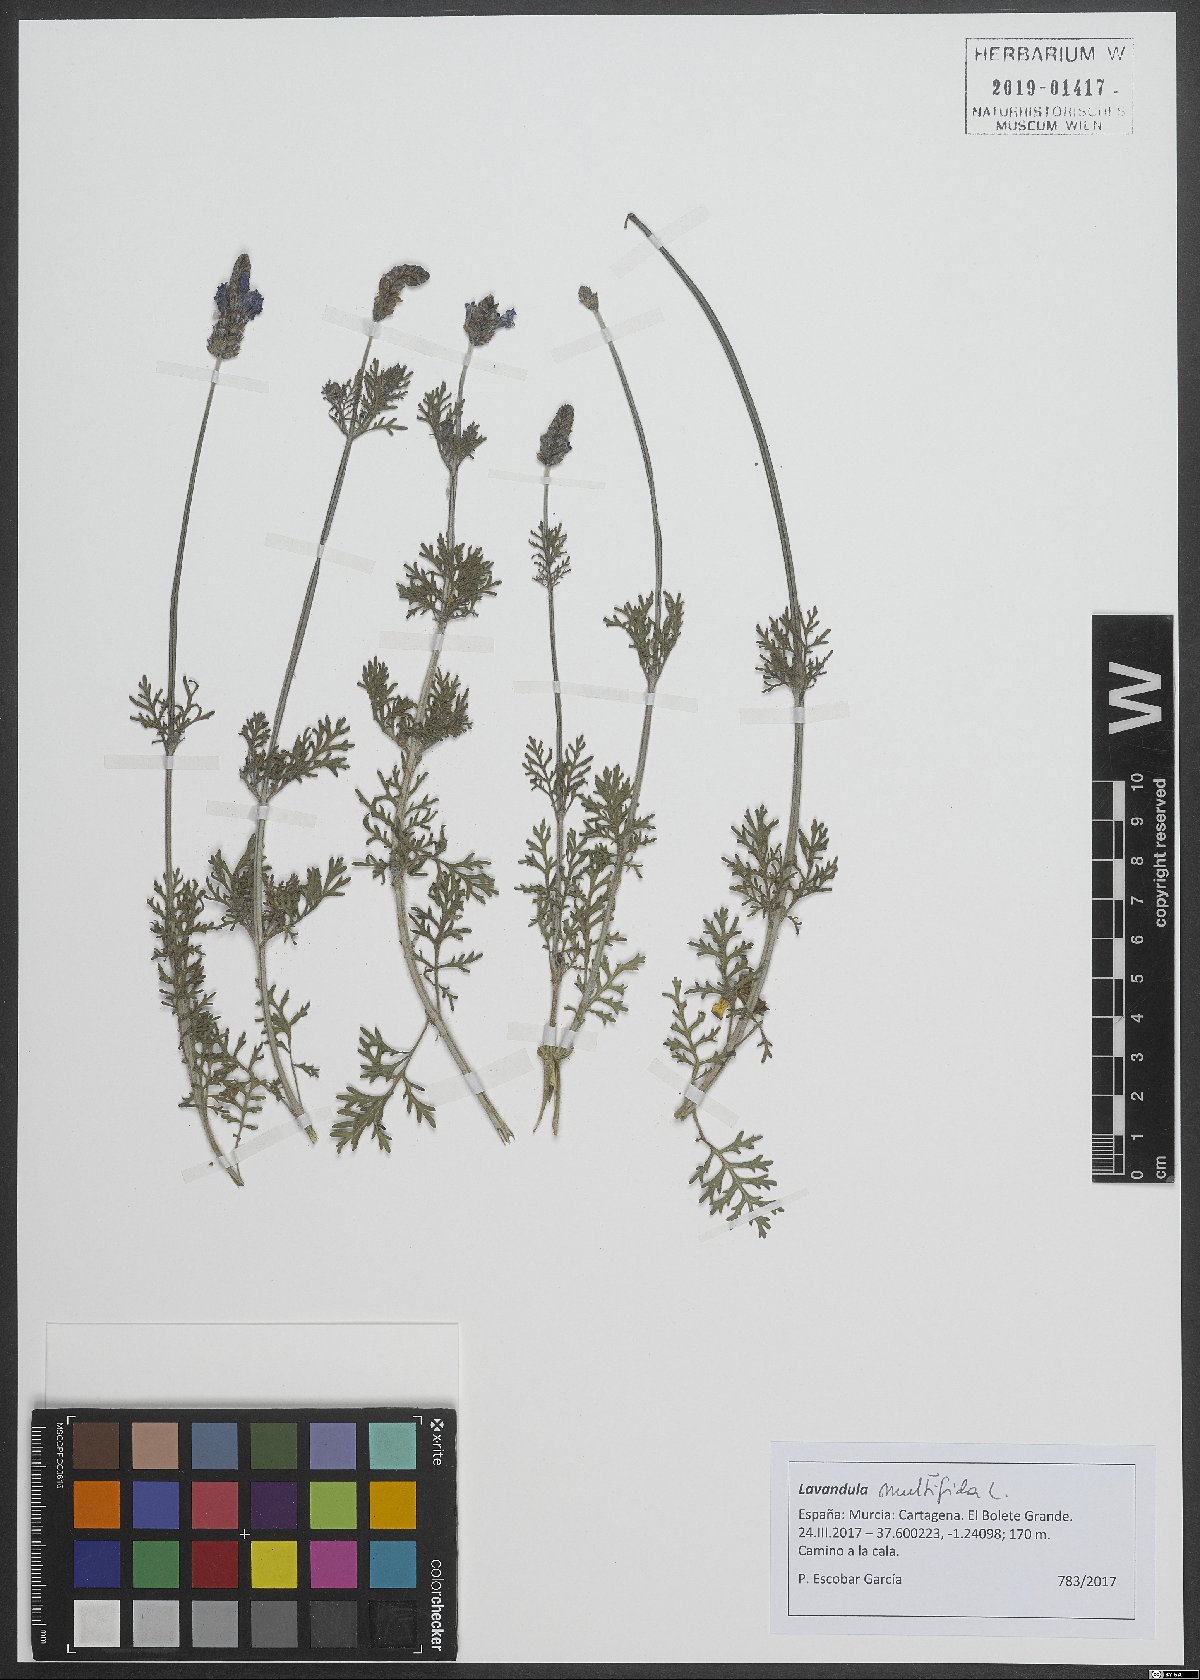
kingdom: Plantae
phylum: Tracheophyta
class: Magnoliopsida
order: Lamiales
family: Lamiaceae
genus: Lavandula
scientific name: Lavandula multifida
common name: Fern-leaf lavender
